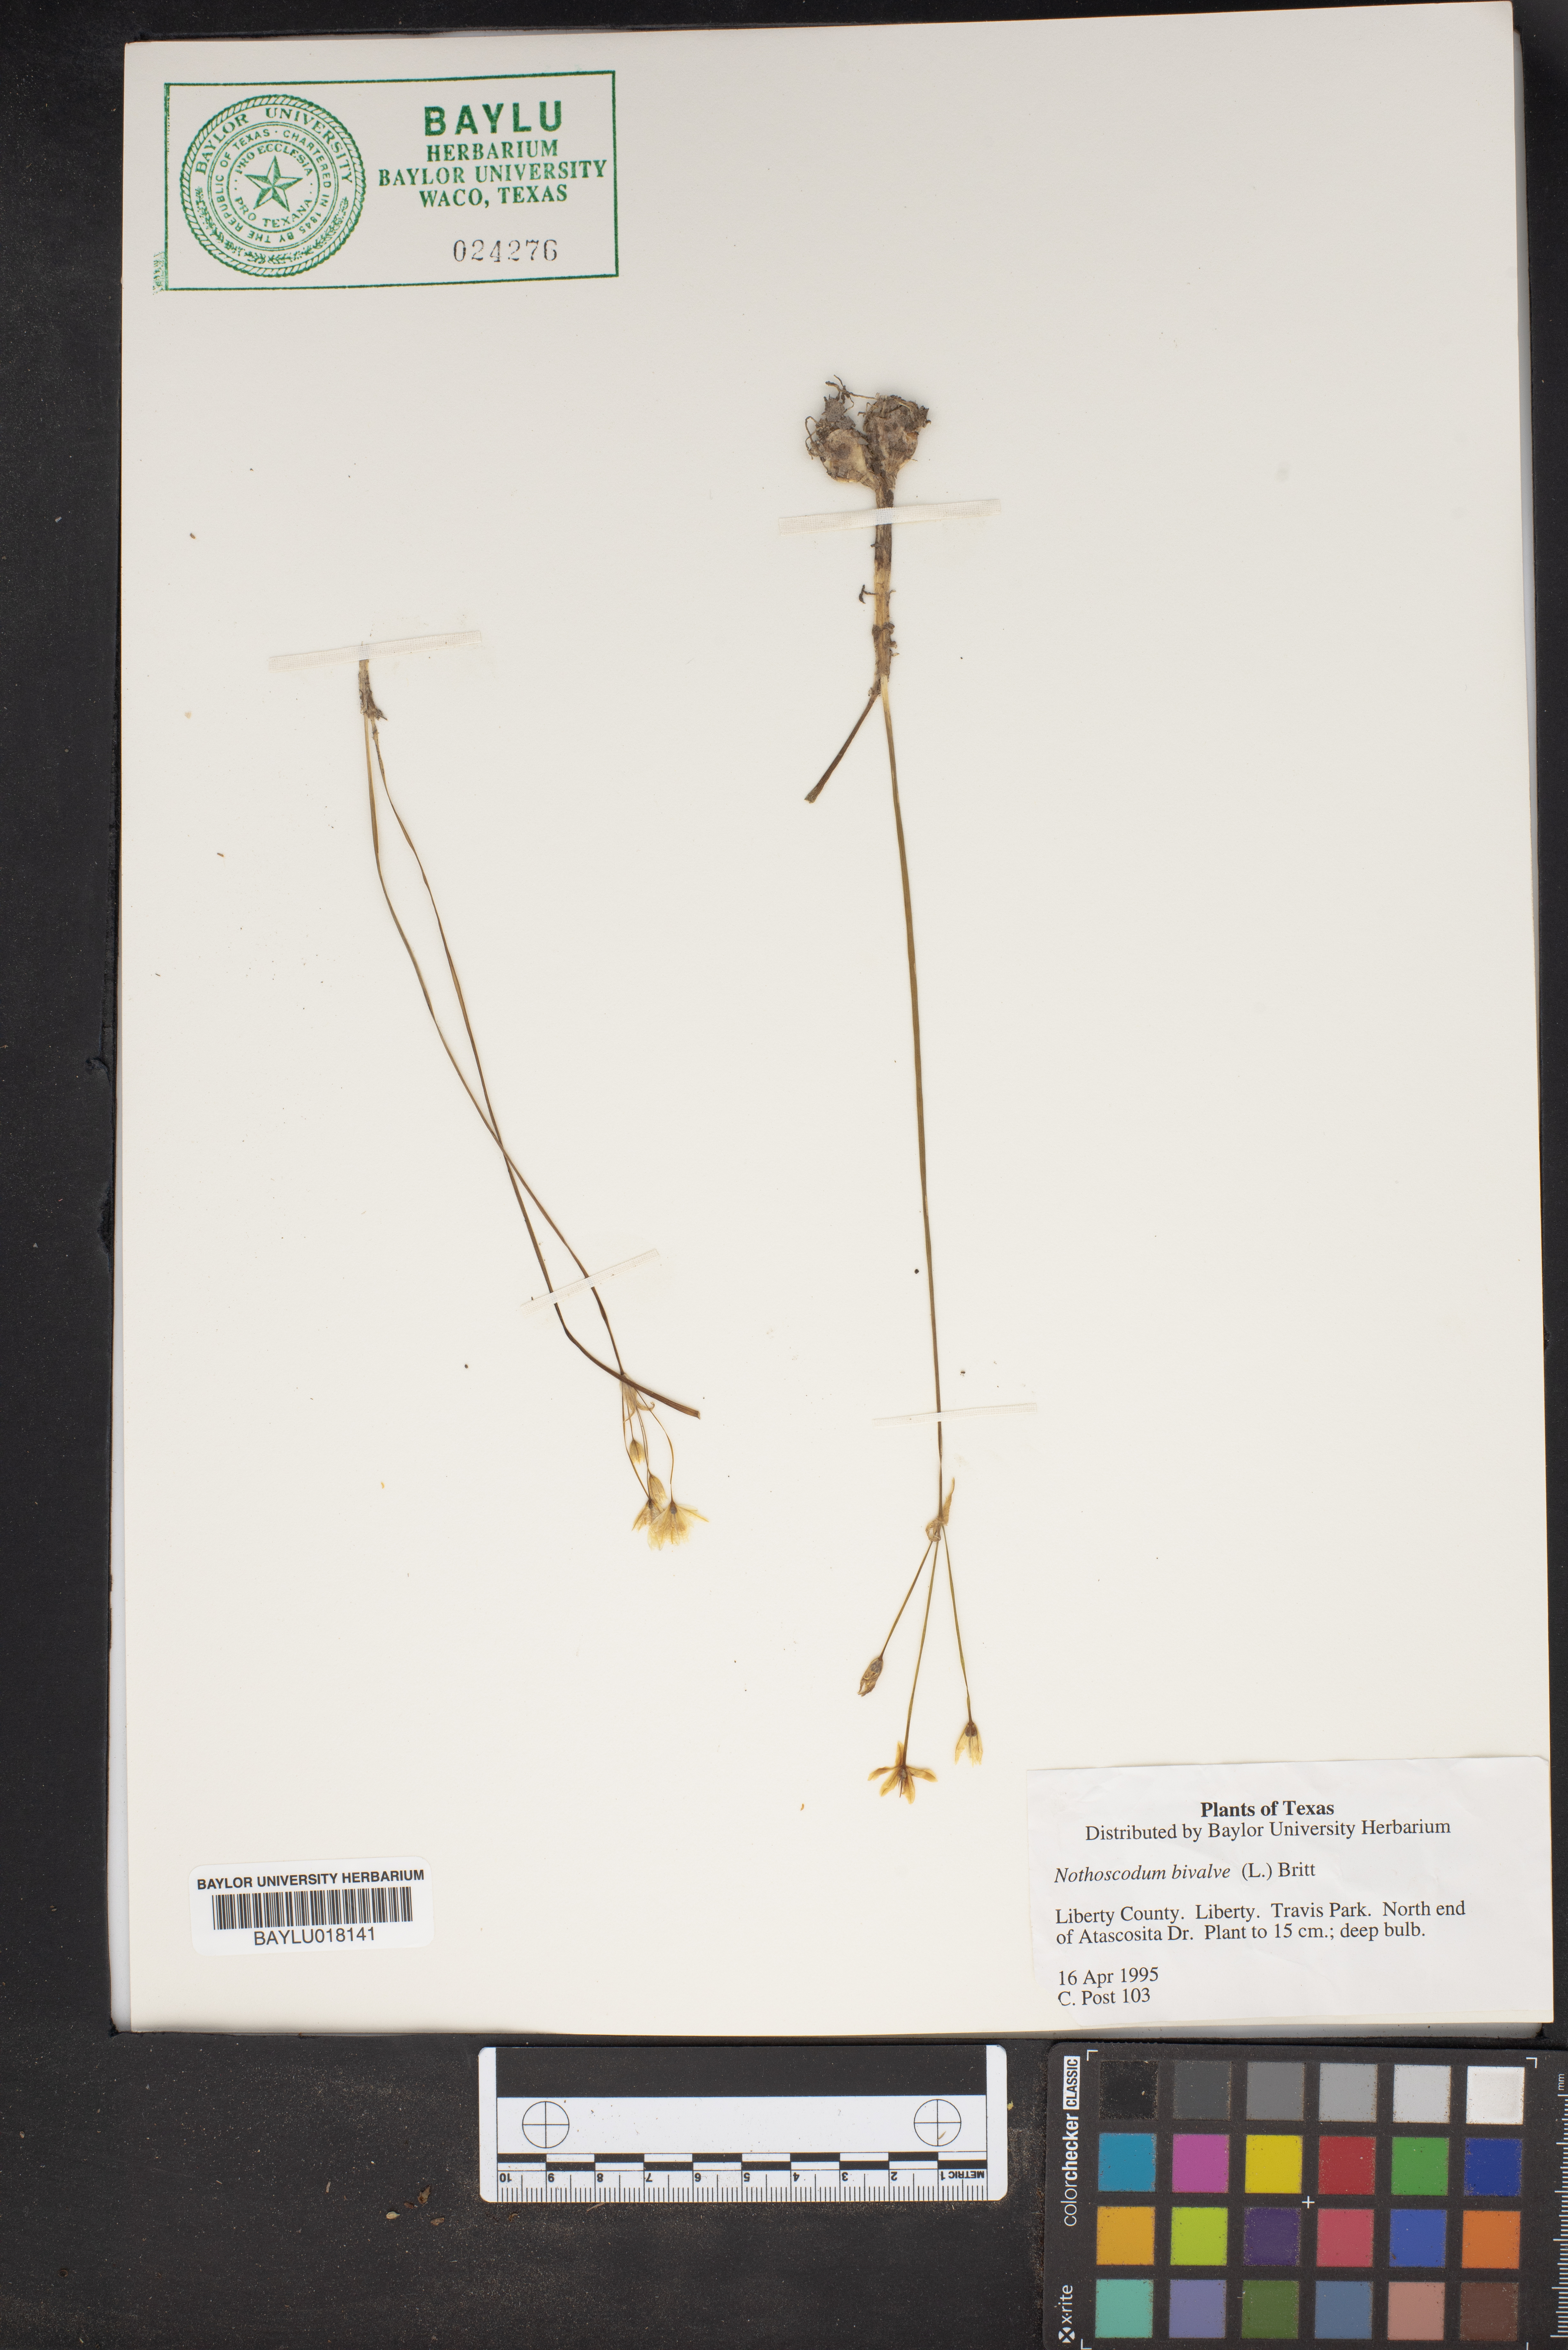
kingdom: Plantae
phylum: Tracheophyta
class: Liliopsida
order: Asparagales
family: Amaryllidaceae
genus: Nothoscordum
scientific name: Nothoscordum bivalve
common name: Crow-poison
